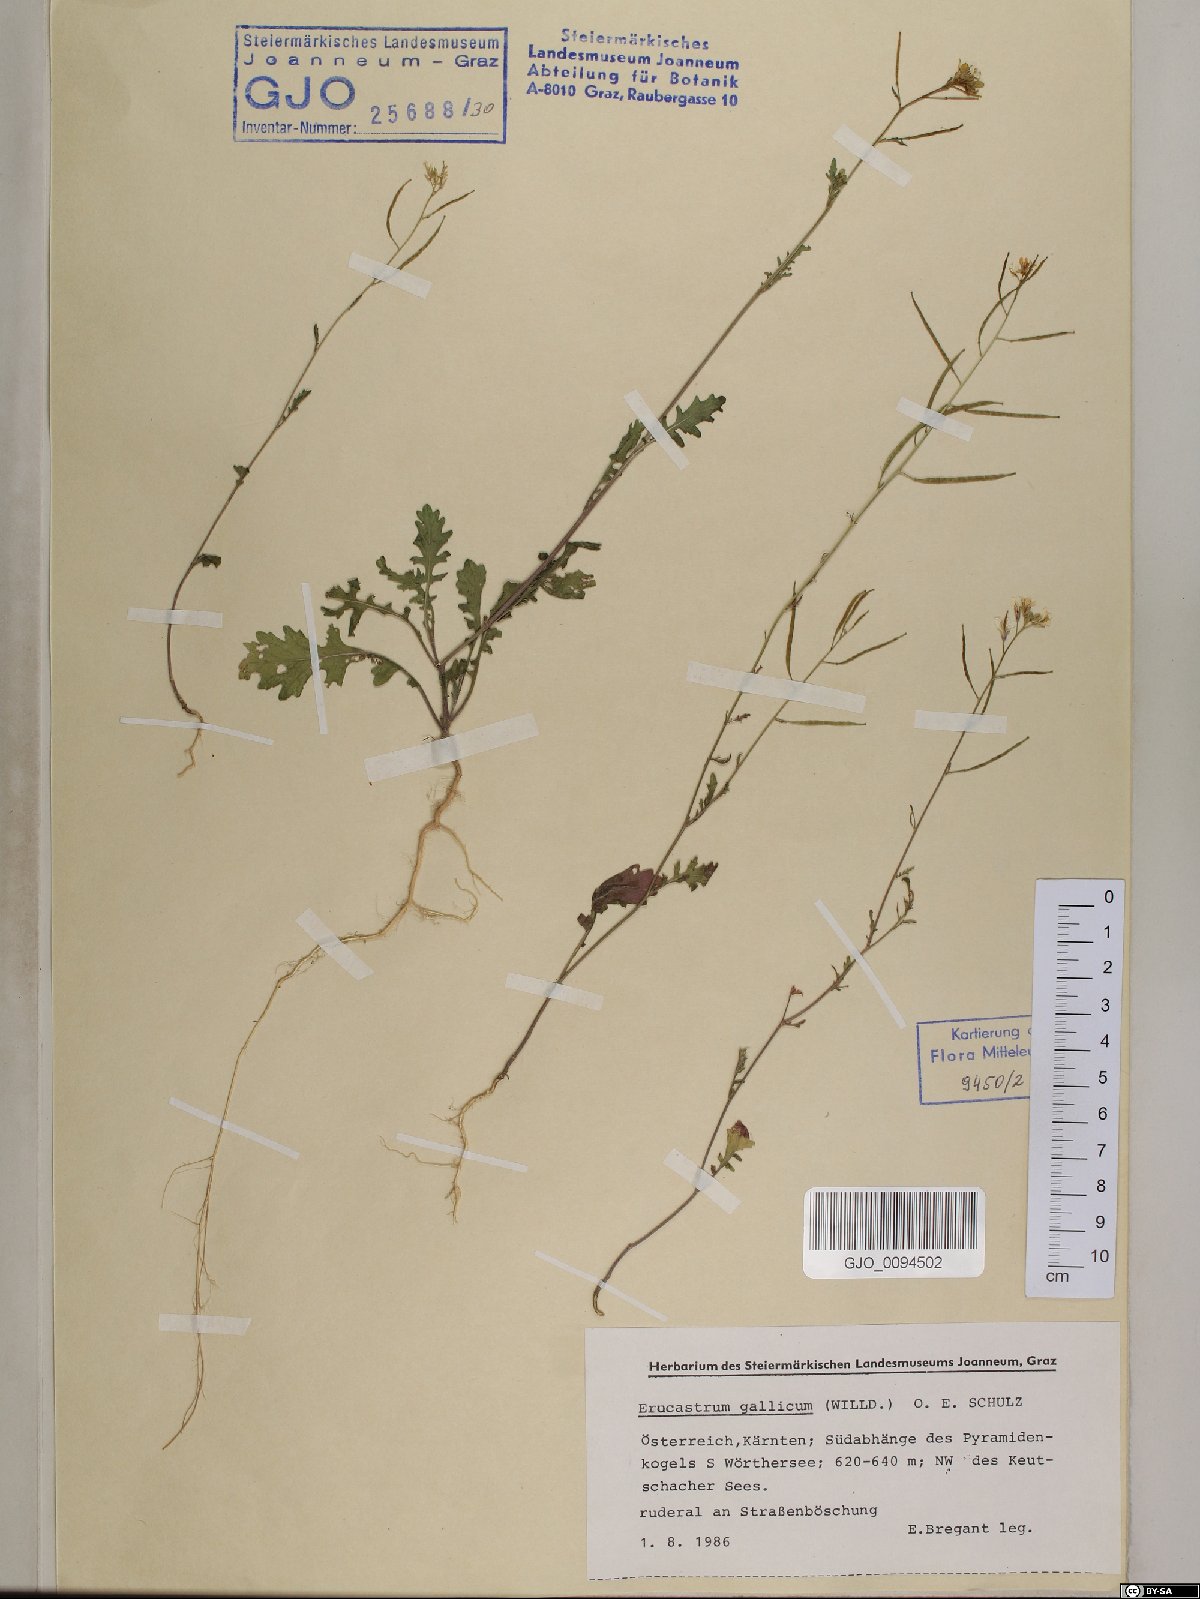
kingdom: Plantae
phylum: Tracheophyta
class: Magnoliopsida
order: Brassicales
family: Brassicaceae
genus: Erucastrum
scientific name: Erucastrum gallicum
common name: Hairy rocket
